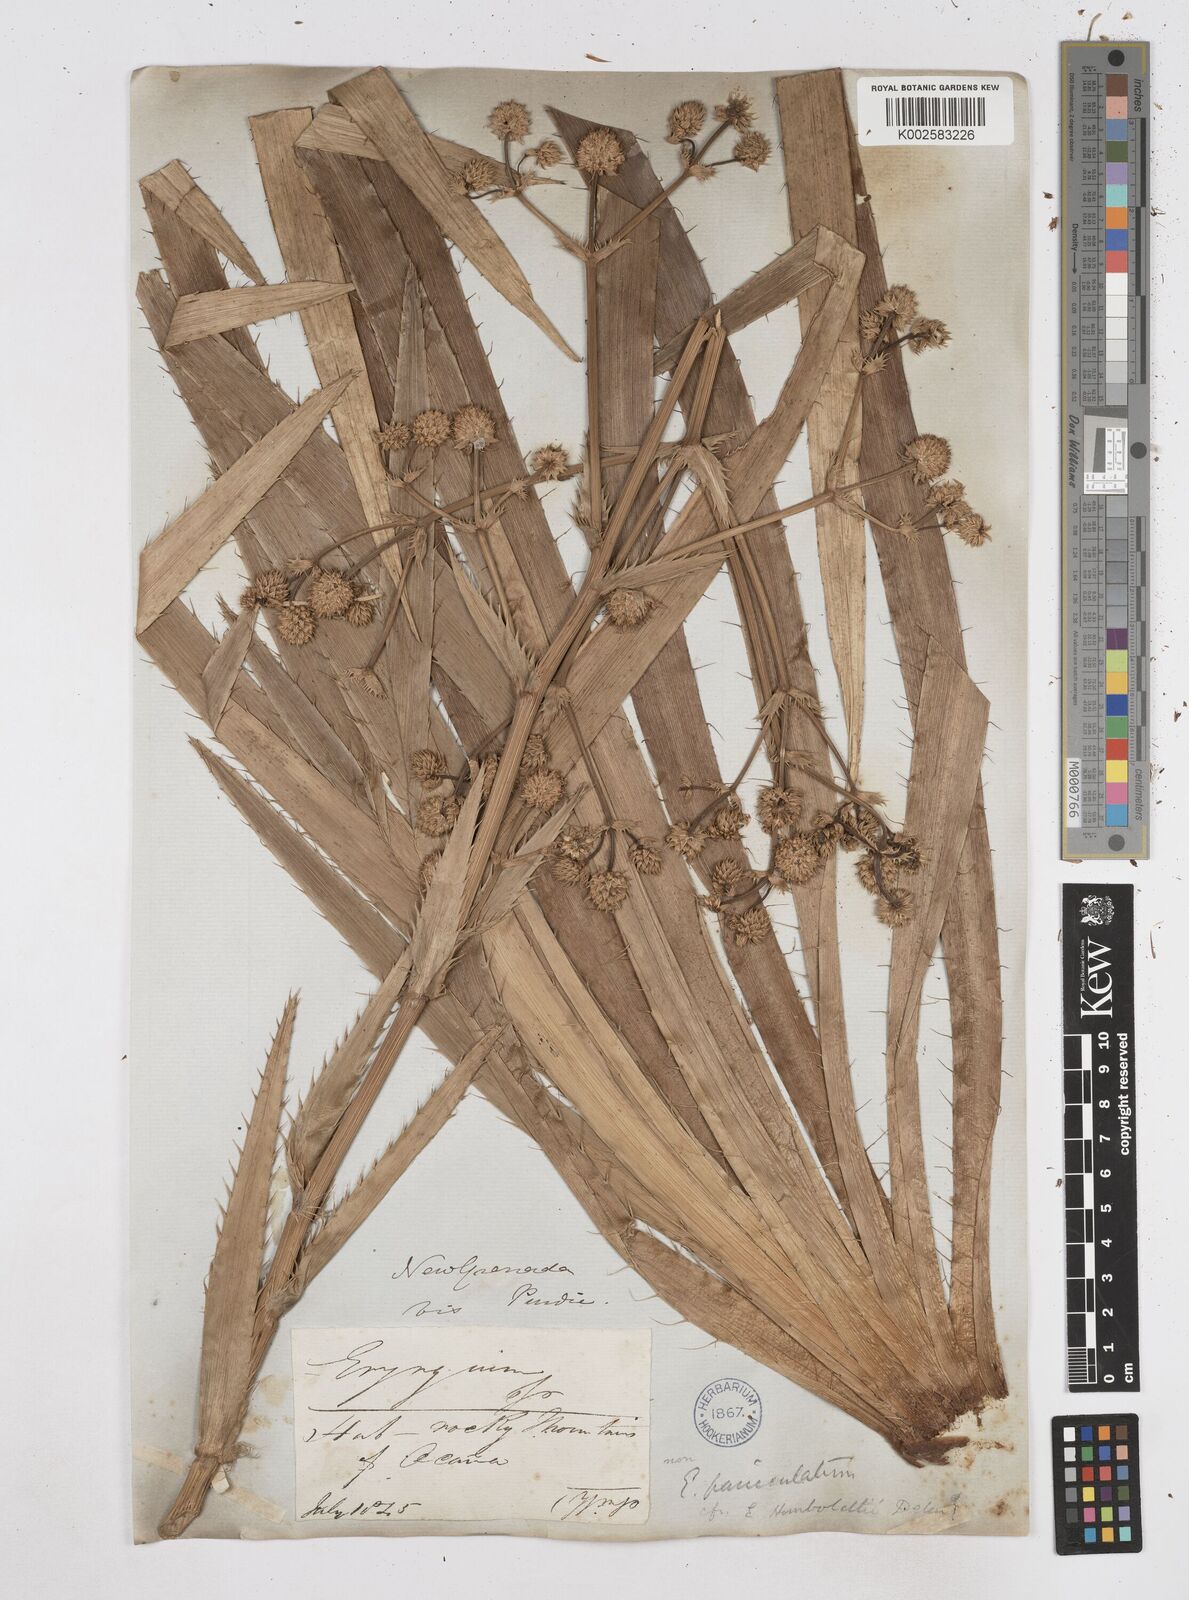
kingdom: Plantae
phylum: Tracheophyta
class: Magnoliopsida
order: Apiales
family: Apiaceae
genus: Eryngium
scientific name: Eryngium humboldtii
